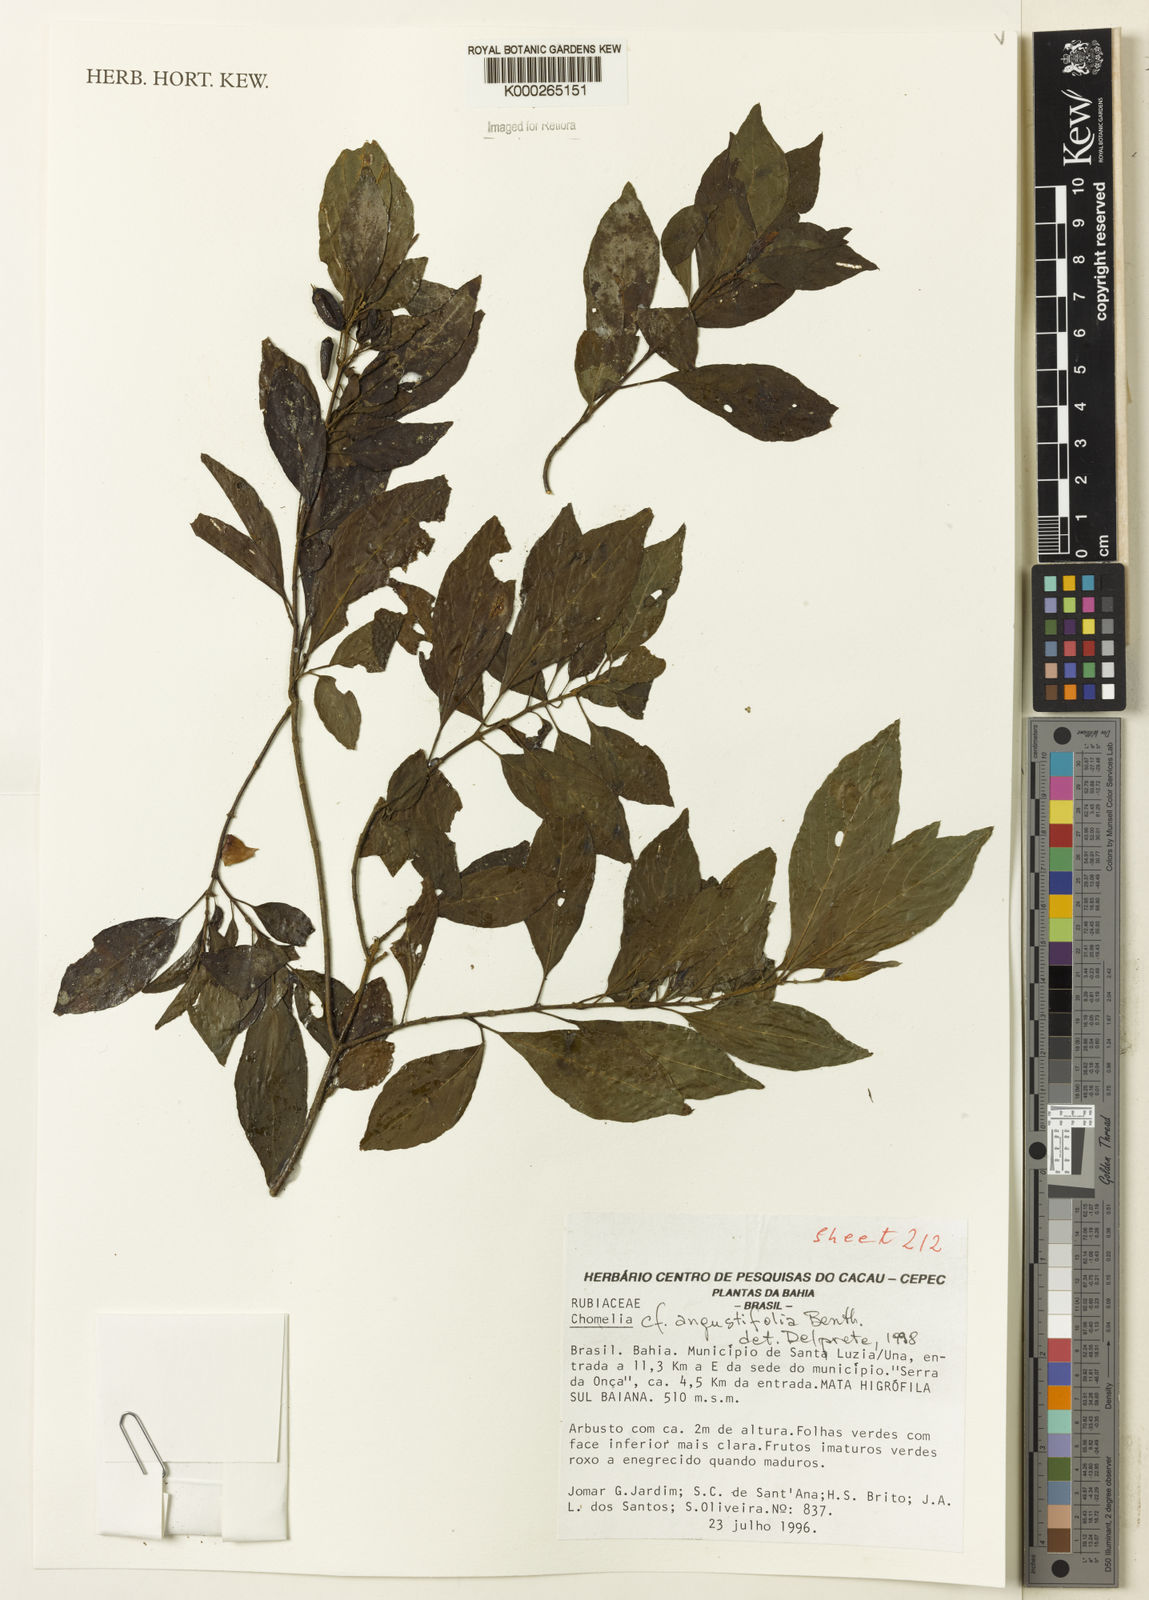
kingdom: Plantae
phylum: Tracheophyta
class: Magnoliopsida
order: Gentianales
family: Rubiaceae
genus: Chomelia
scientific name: Chomelia obtusa
